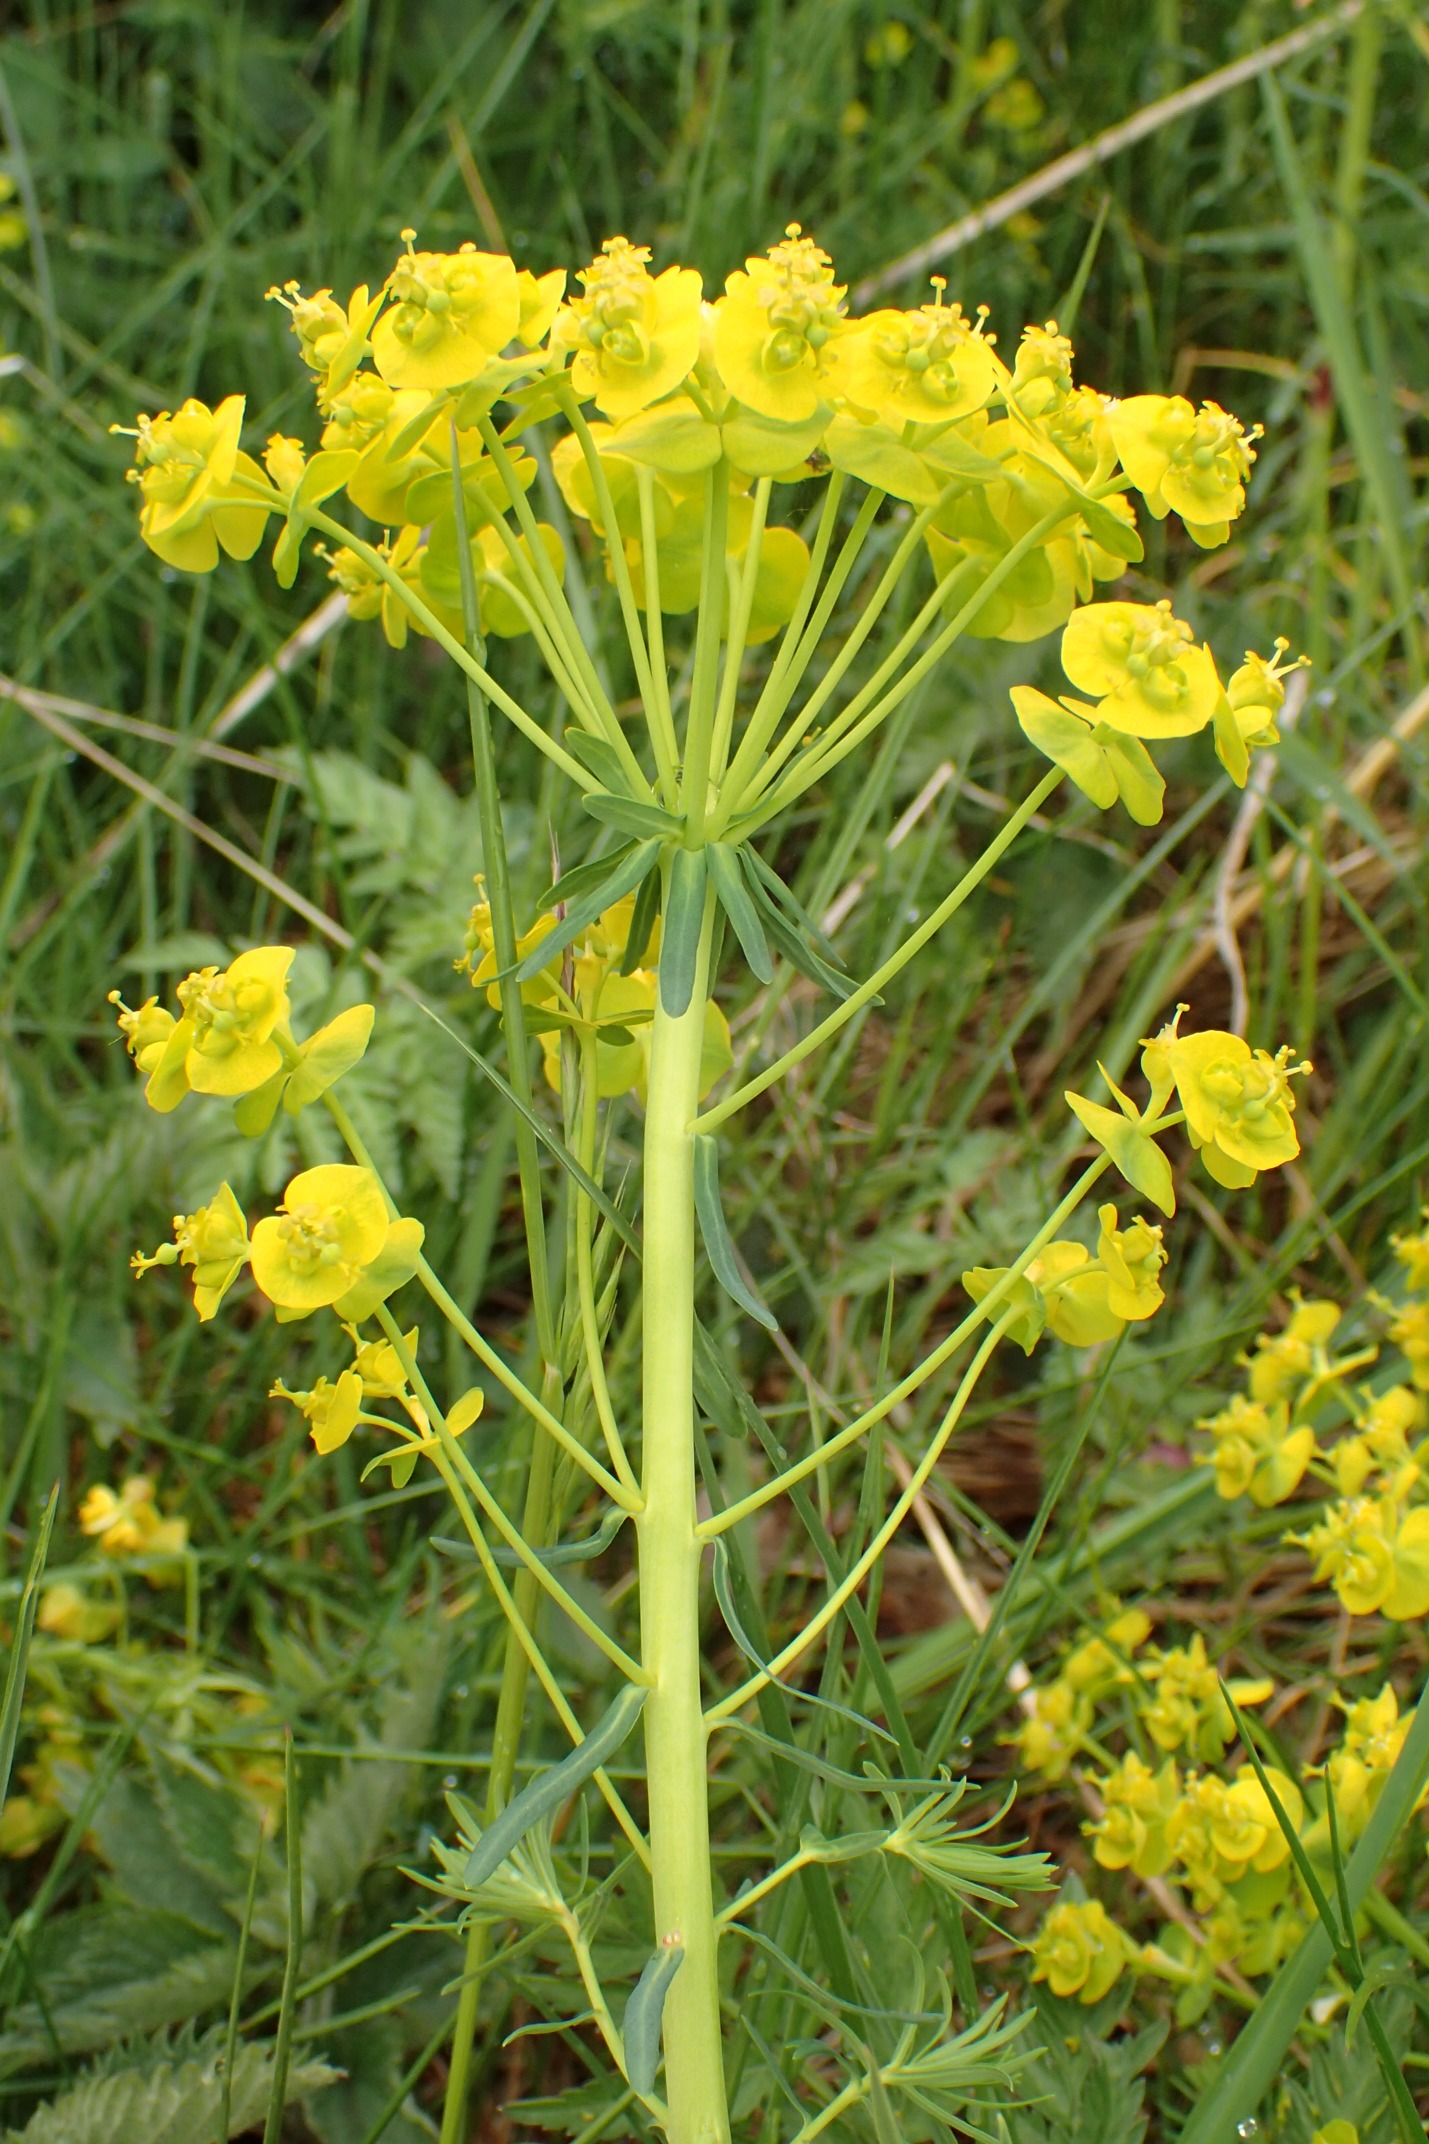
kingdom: Plantae
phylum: Tracheophyta
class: Magnoliopsida
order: Malpighiales
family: Euphorbiaceae
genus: Euphorbia
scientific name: Euphorbia cyparissias
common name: Cypres-vortemælk
